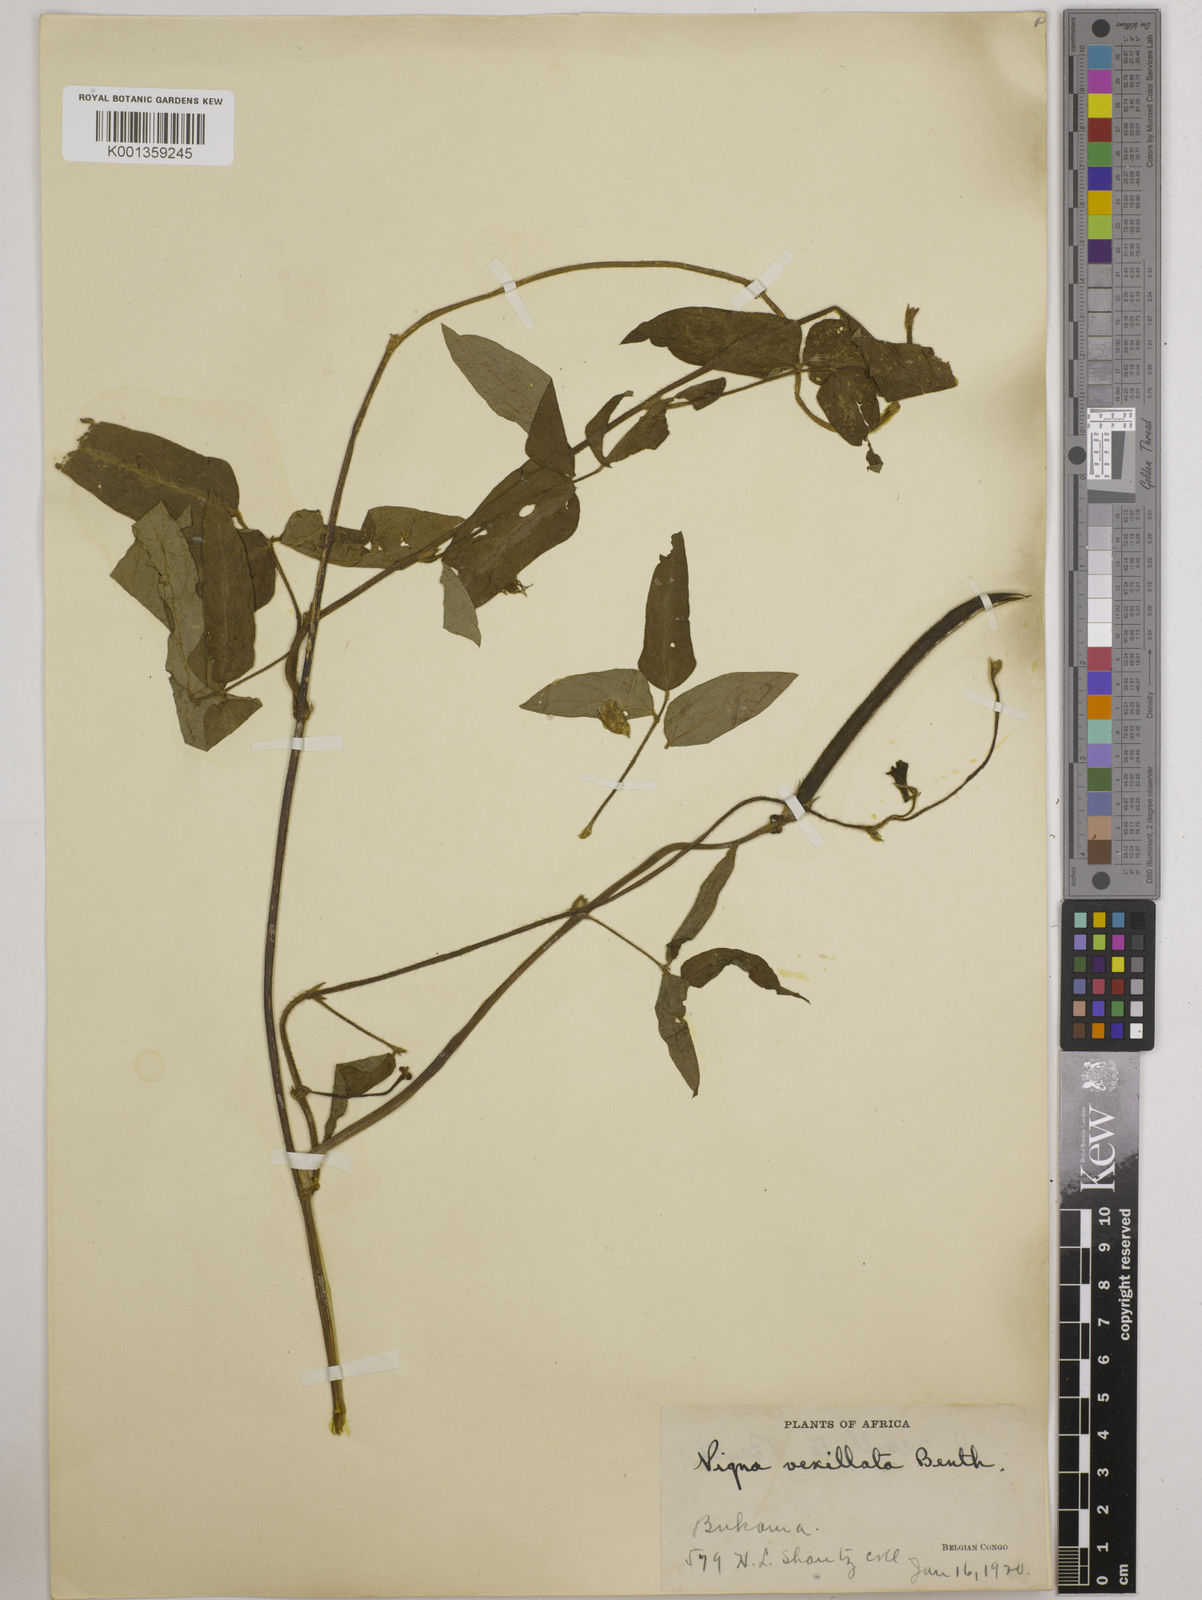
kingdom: Plantae
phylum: Tracheophyta
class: Magnoliopsida
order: Fabales
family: Fabaceae
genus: Vigna
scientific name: Vigna vexillata
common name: Zombi pea
